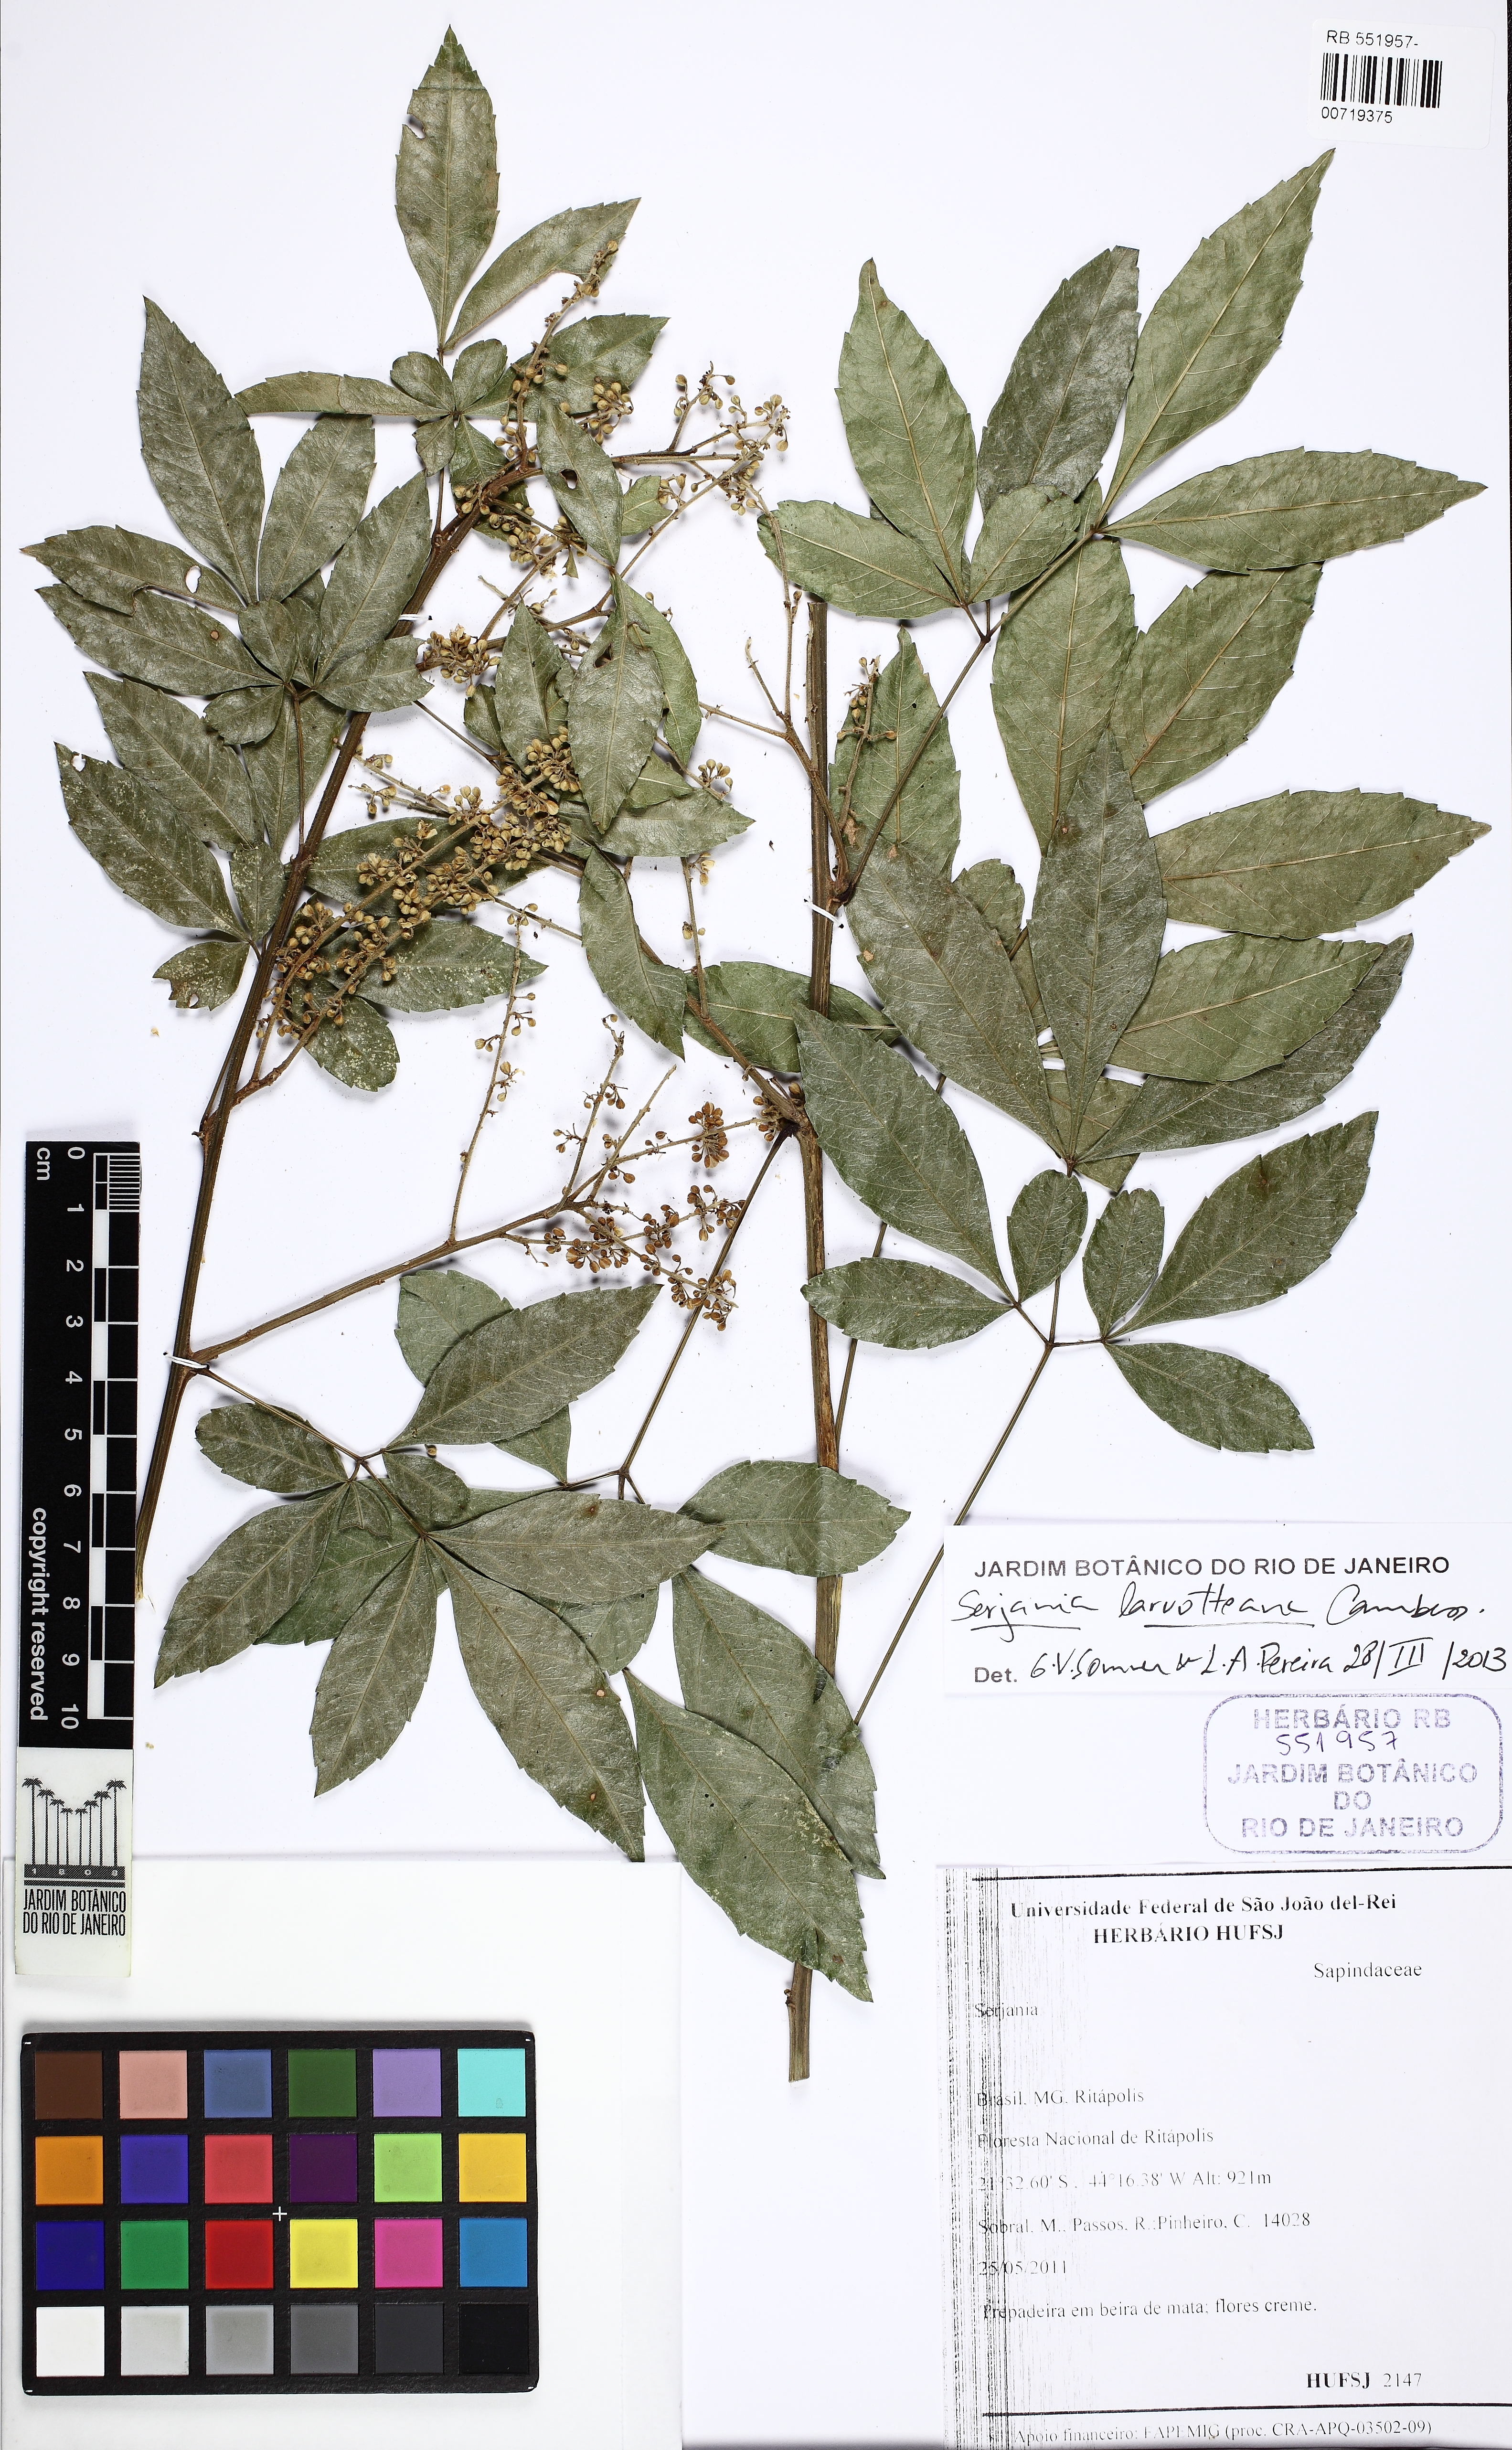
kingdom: Plantae
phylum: Tracheophyta
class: Magnoliopsida
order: Sapindales
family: Sapindaceae
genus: Serjania
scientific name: Serjania laruotteana
